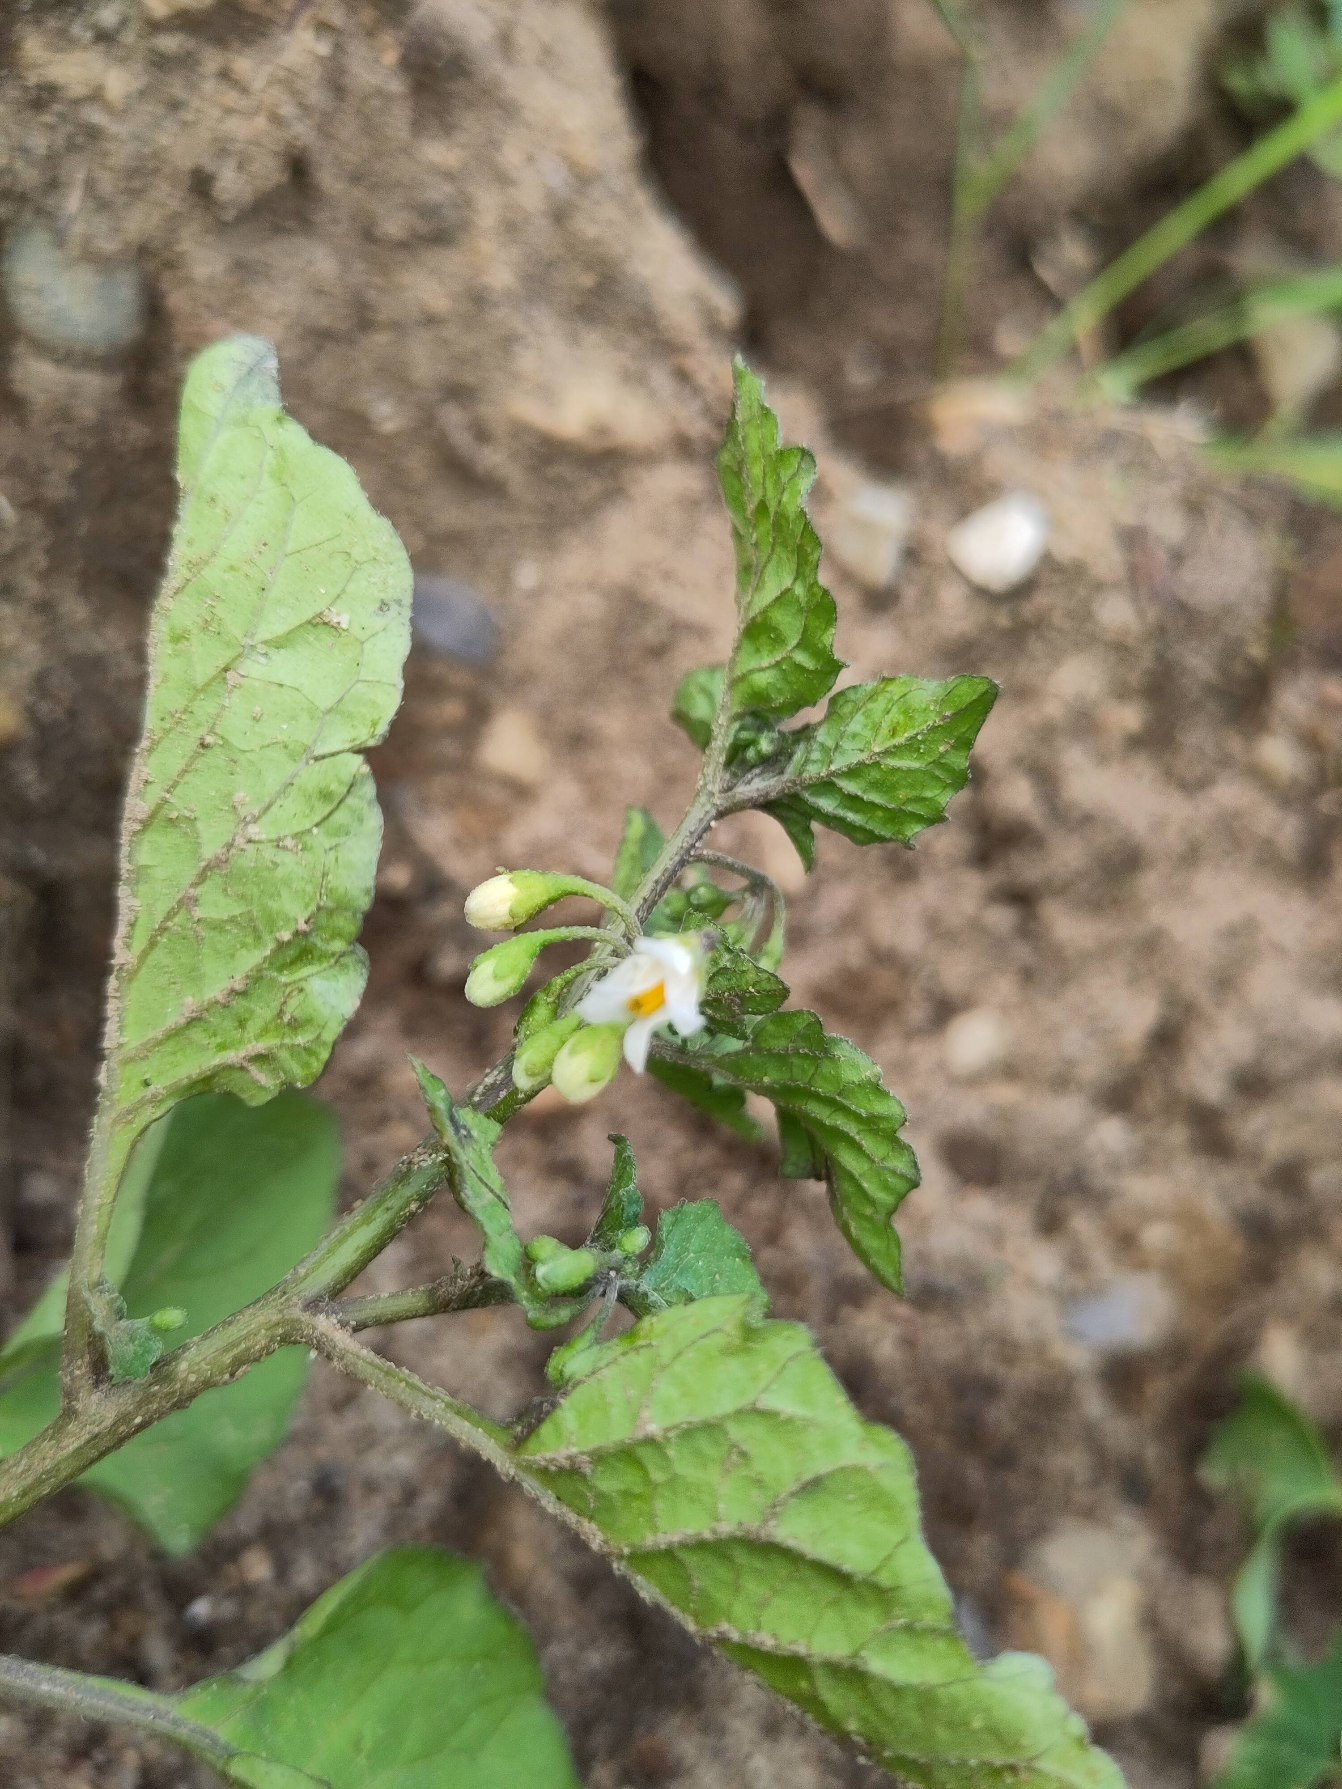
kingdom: Plantae
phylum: Tracheophyta
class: Magnoliopsida
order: Solanales
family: Solanaceae
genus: Solanum
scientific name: Solanum nigrum
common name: Sort natskygge
